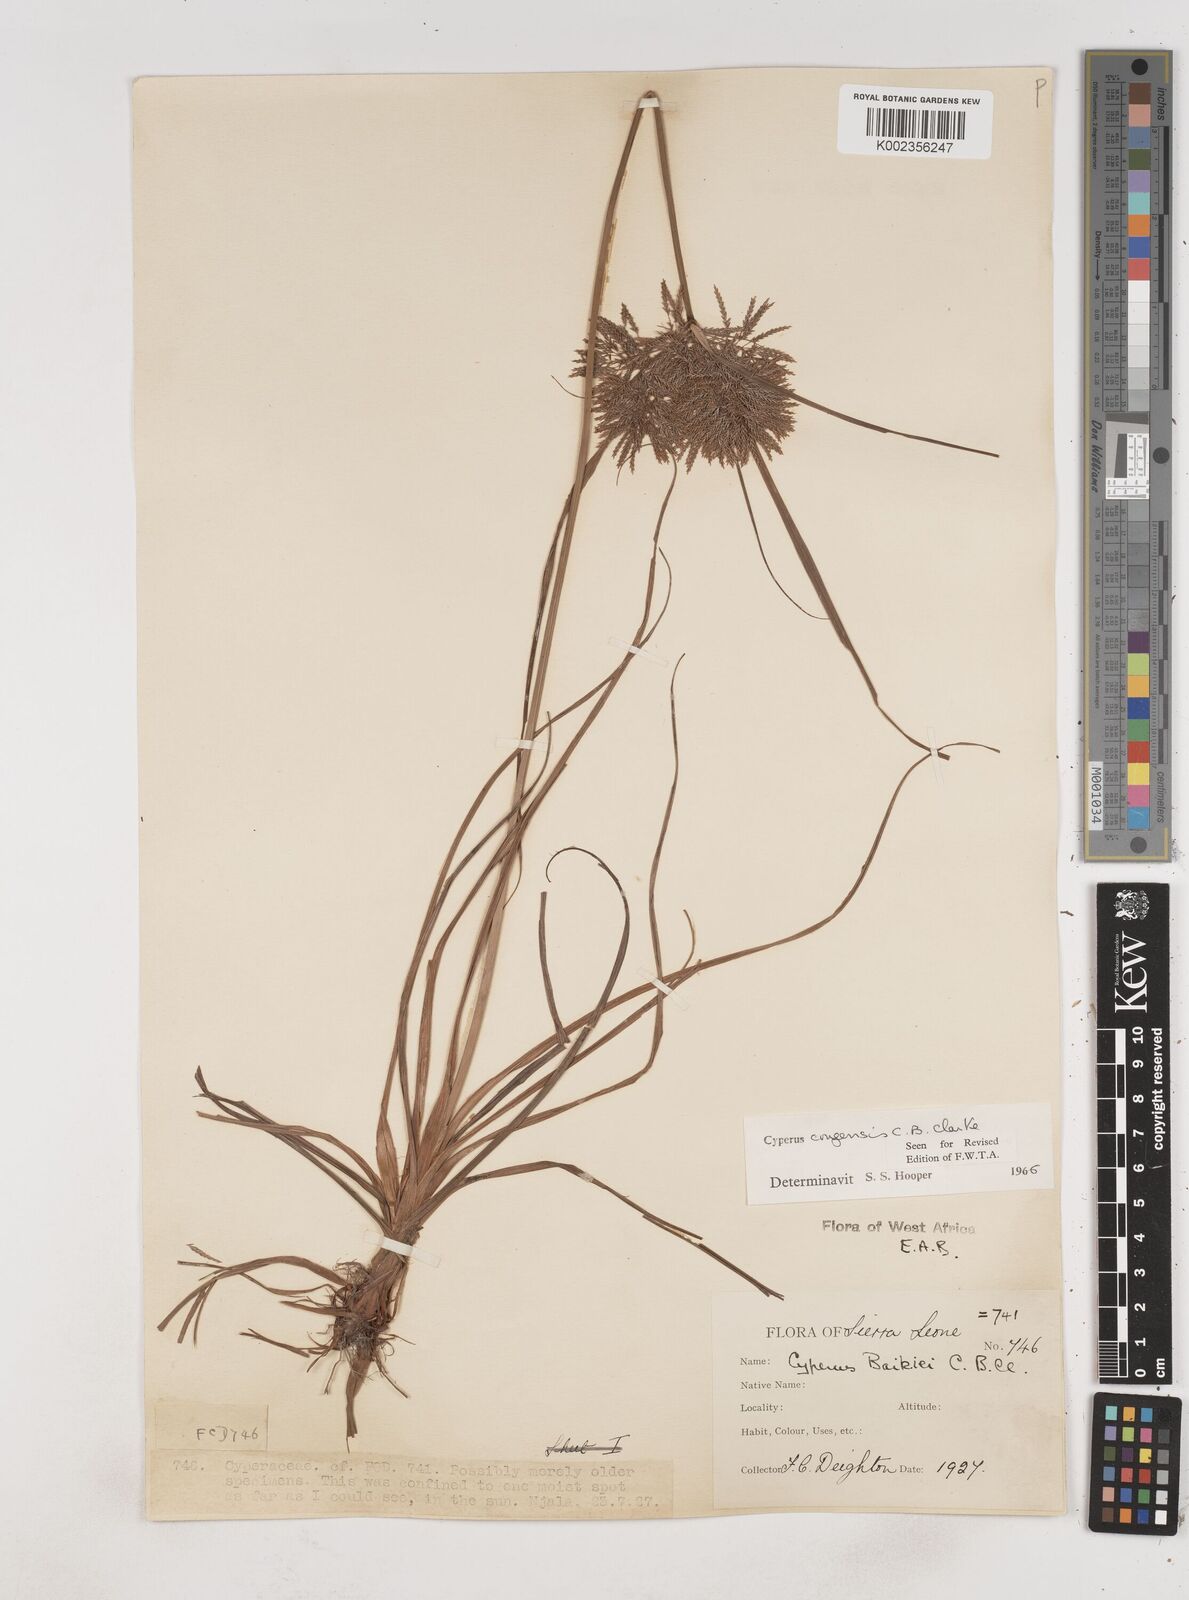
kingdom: Plantae
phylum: Tracheophyta
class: Liliopsida
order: Poales
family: Cyperaceae
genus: Cyperus
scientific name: Cyperus congensis
